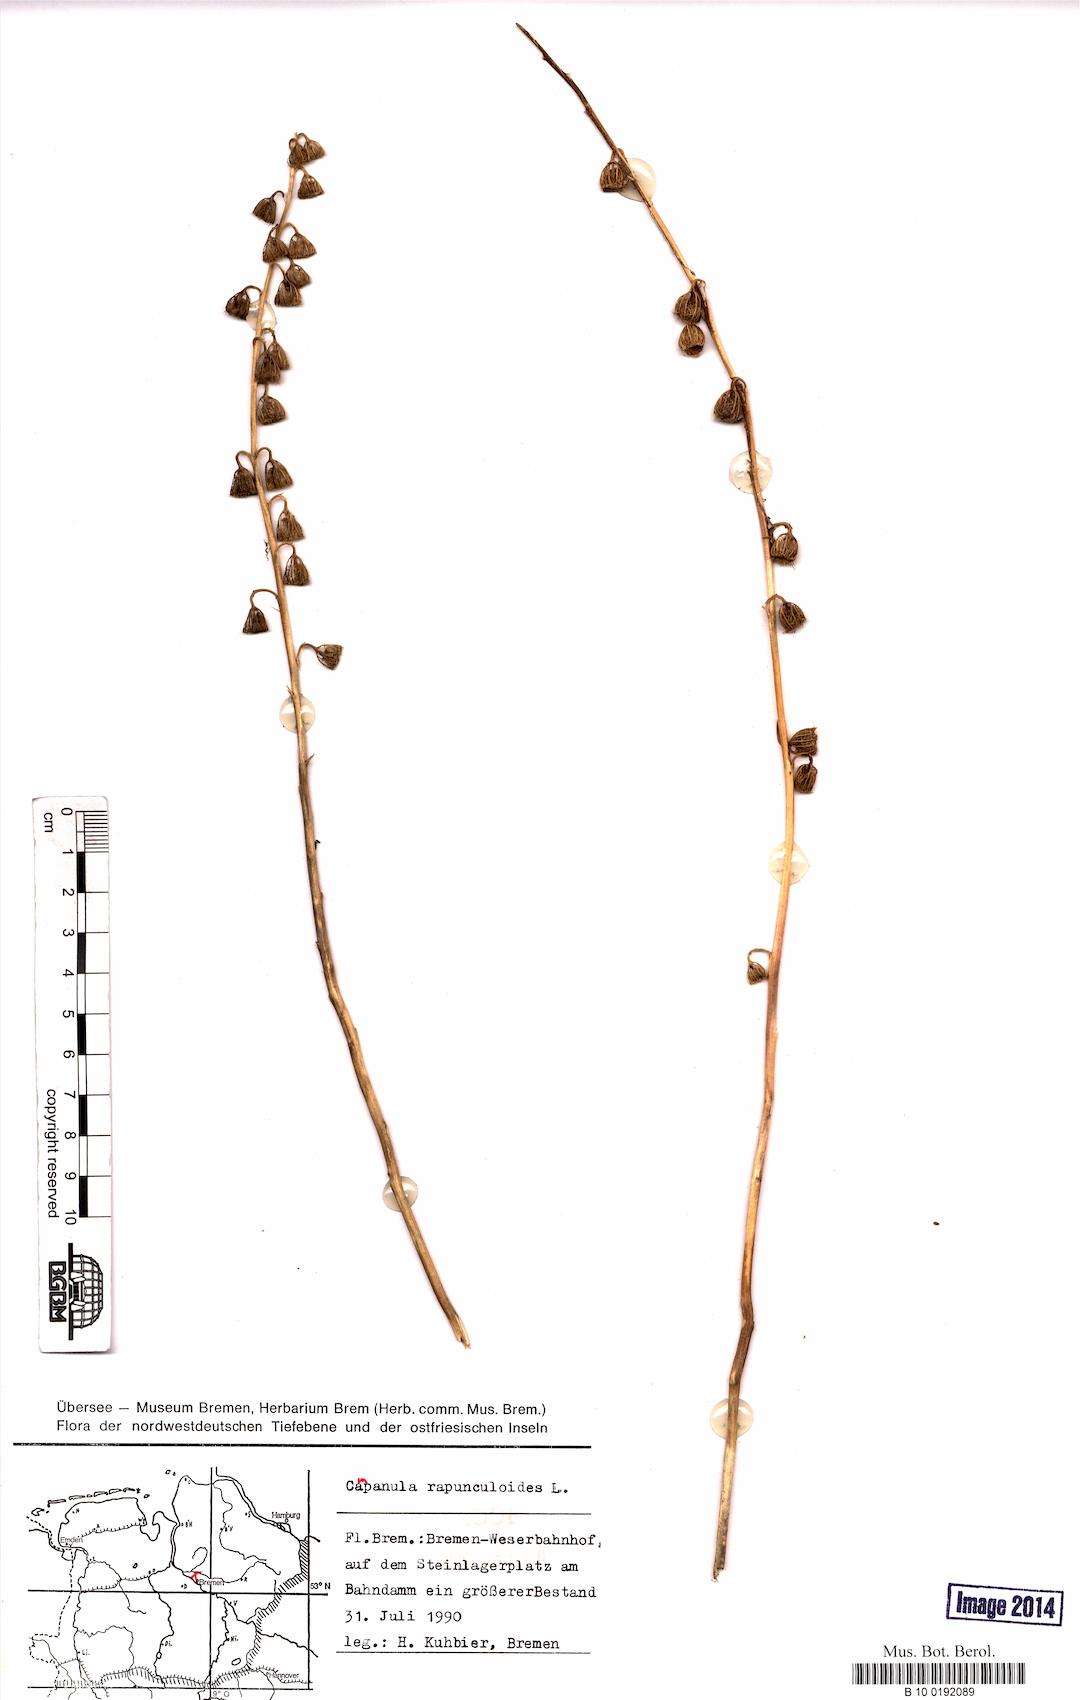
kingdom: Plantae
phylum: Tracheophyta
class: Magnoliopsida
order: Asterales
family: Campanulaceae
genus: Campanula
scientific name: Campanula rapunculoides
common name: Creeping bellflower
